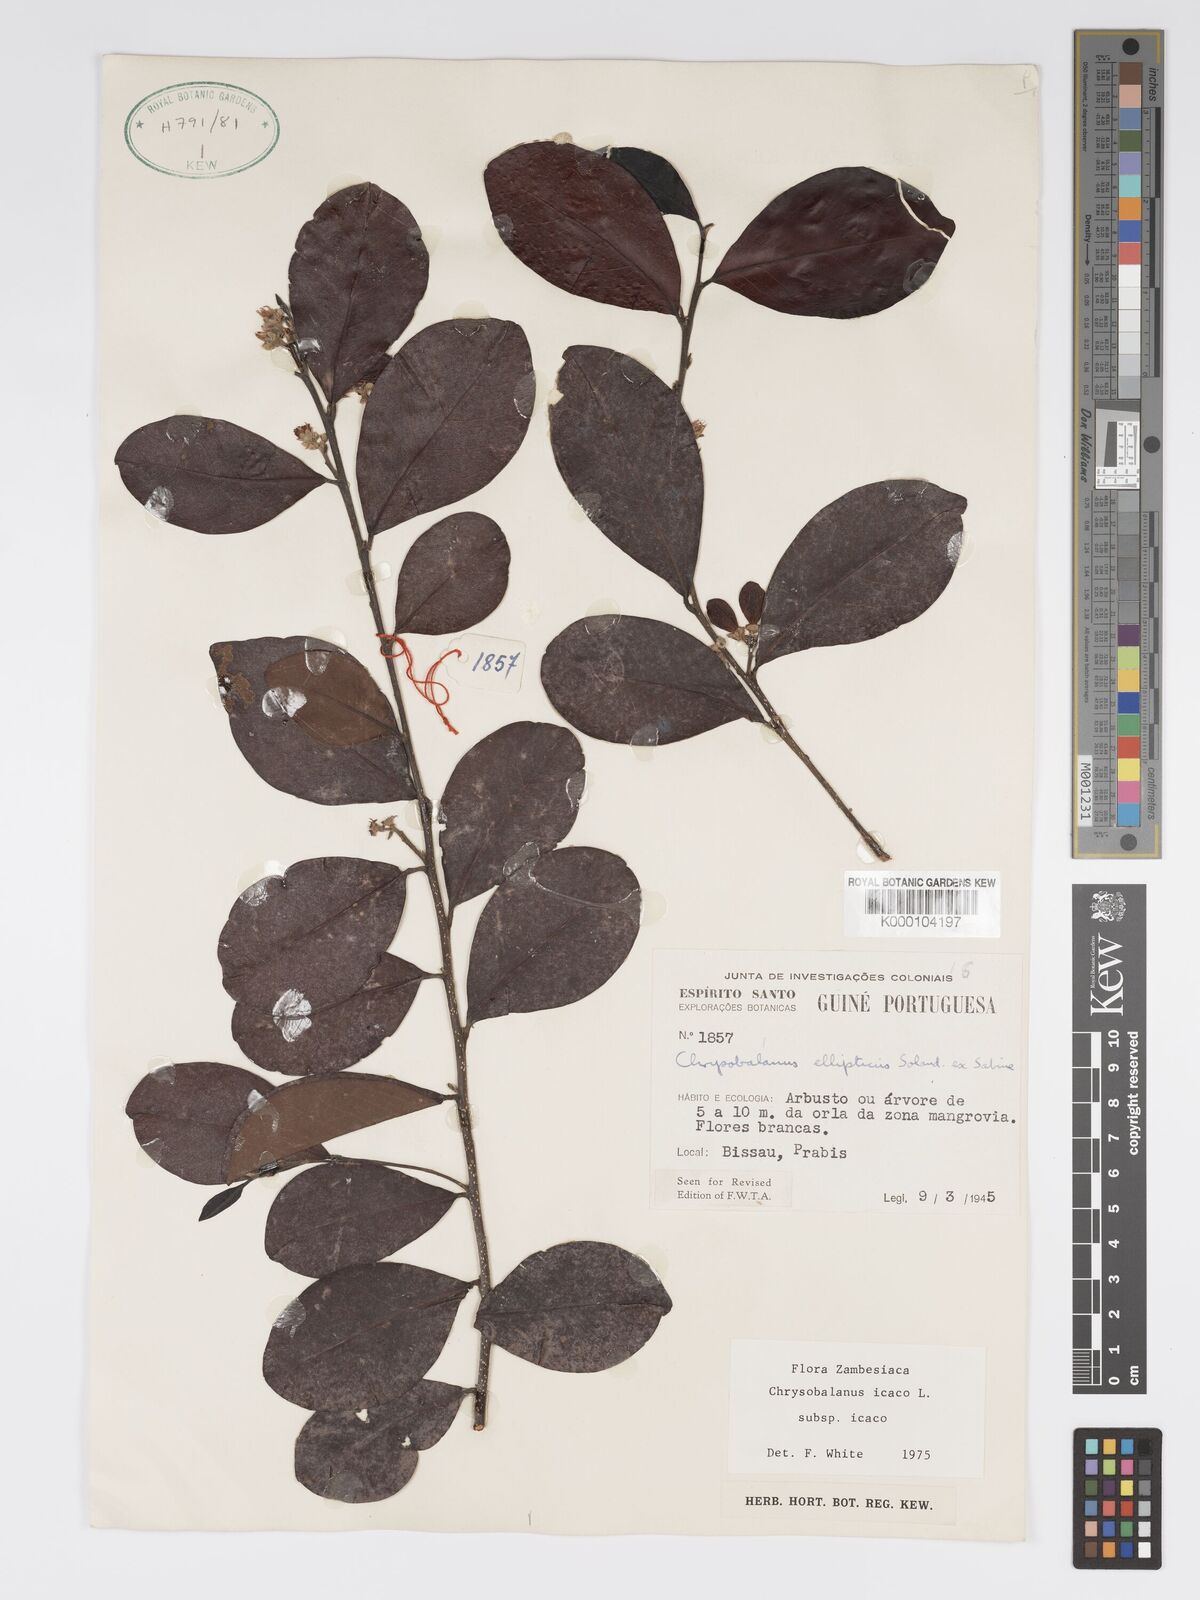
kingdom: Plantae
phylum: Tracheophyta
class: Magnoliopsida
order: Malpighiales
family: Chrysobalanaceae
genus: Chrysobalanus
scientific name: Chrysobalanus icaco
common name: Coco plum
